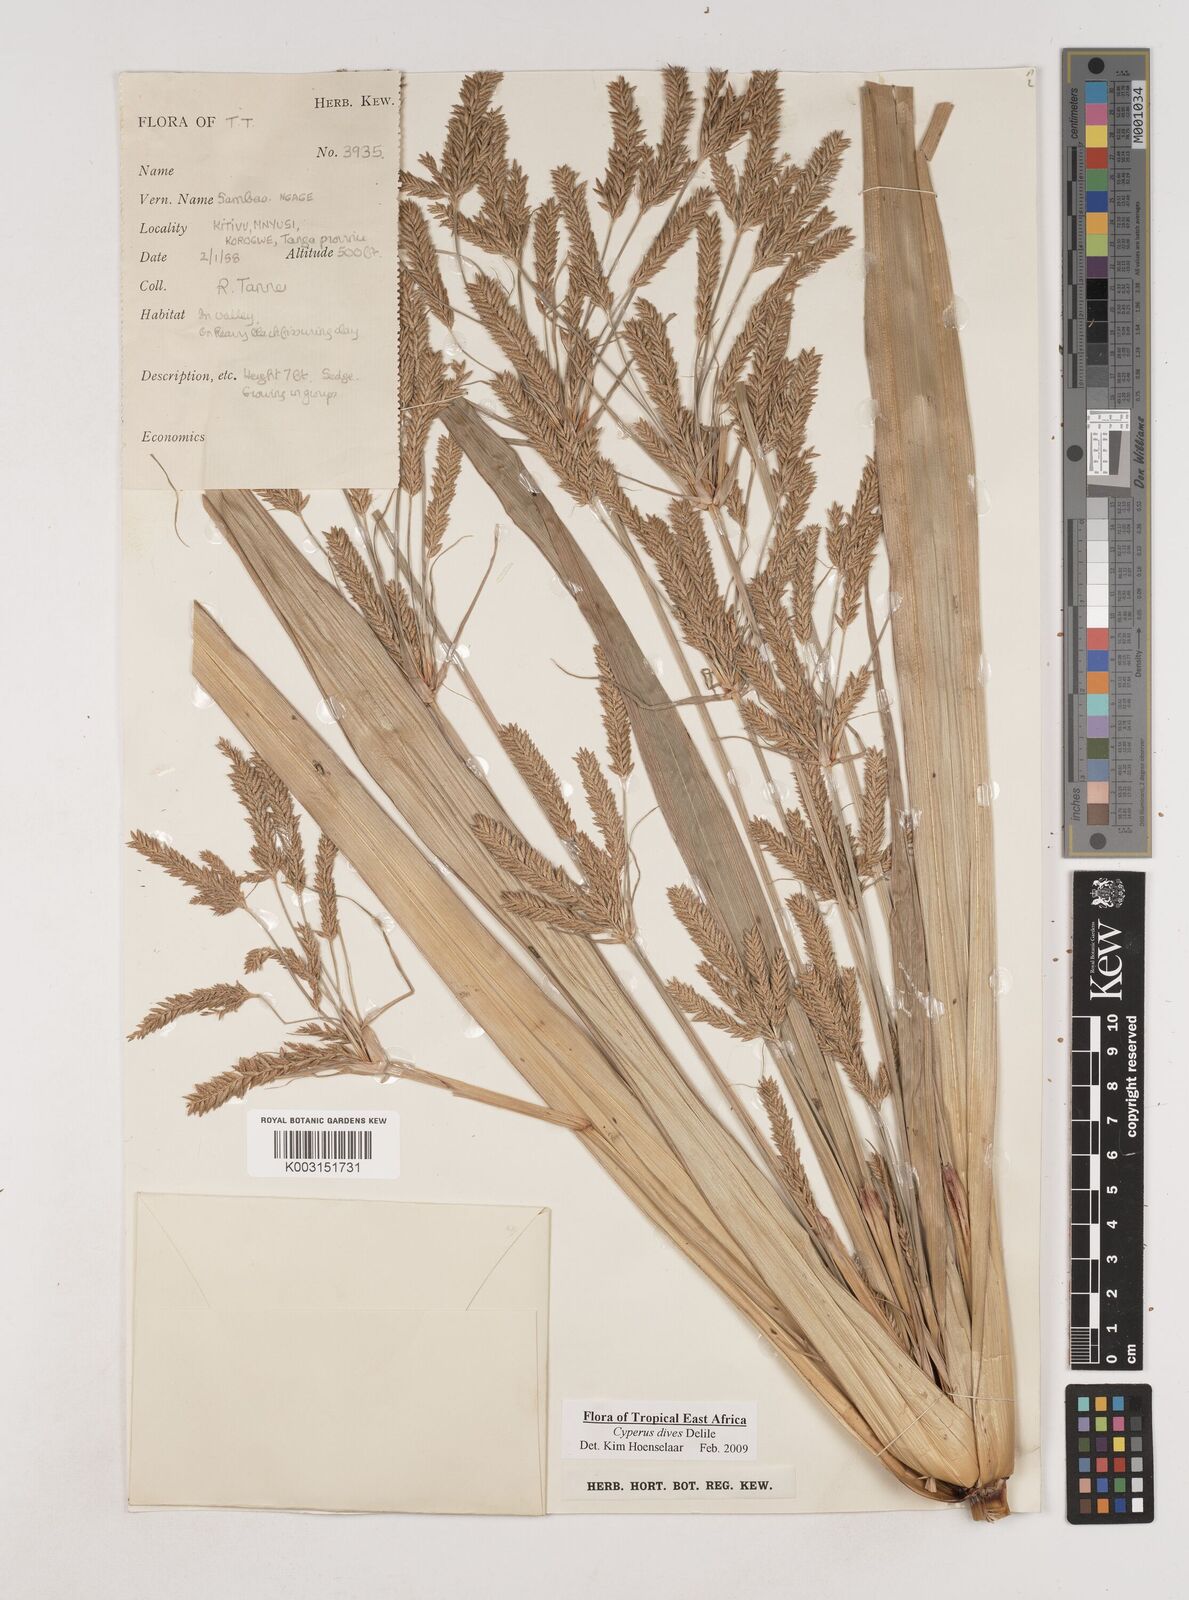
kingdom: Plantae
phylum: Tracheophyta
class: Liliopsida
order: Poales
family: Cyperaceae
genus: Cyperus
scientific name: Cyperus dives
